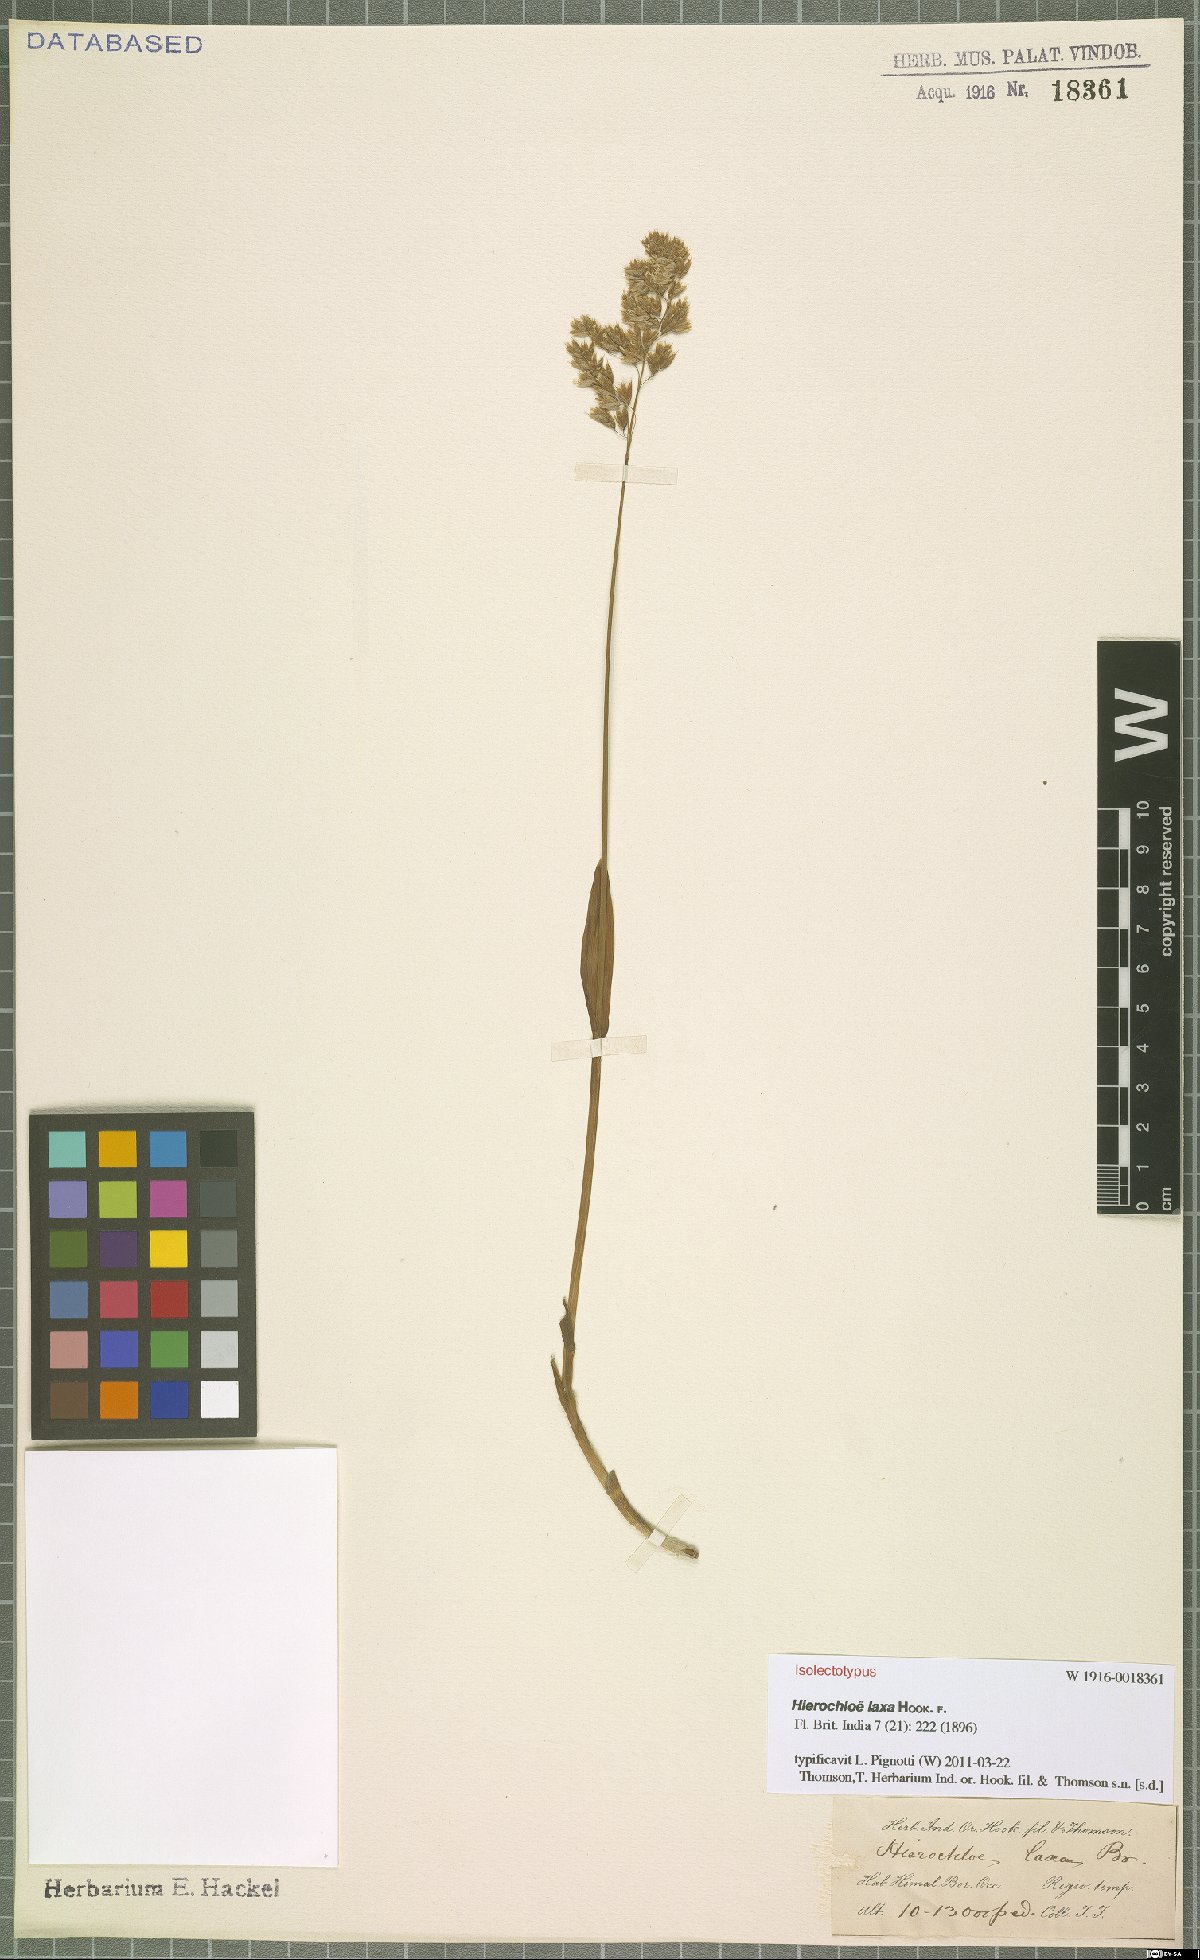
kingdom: Plantae
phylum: Tracheophyta
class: Liliopsida
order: Poales
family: Poaceae
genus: Anthoxanthum
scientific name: Anthoxanthum laxum
